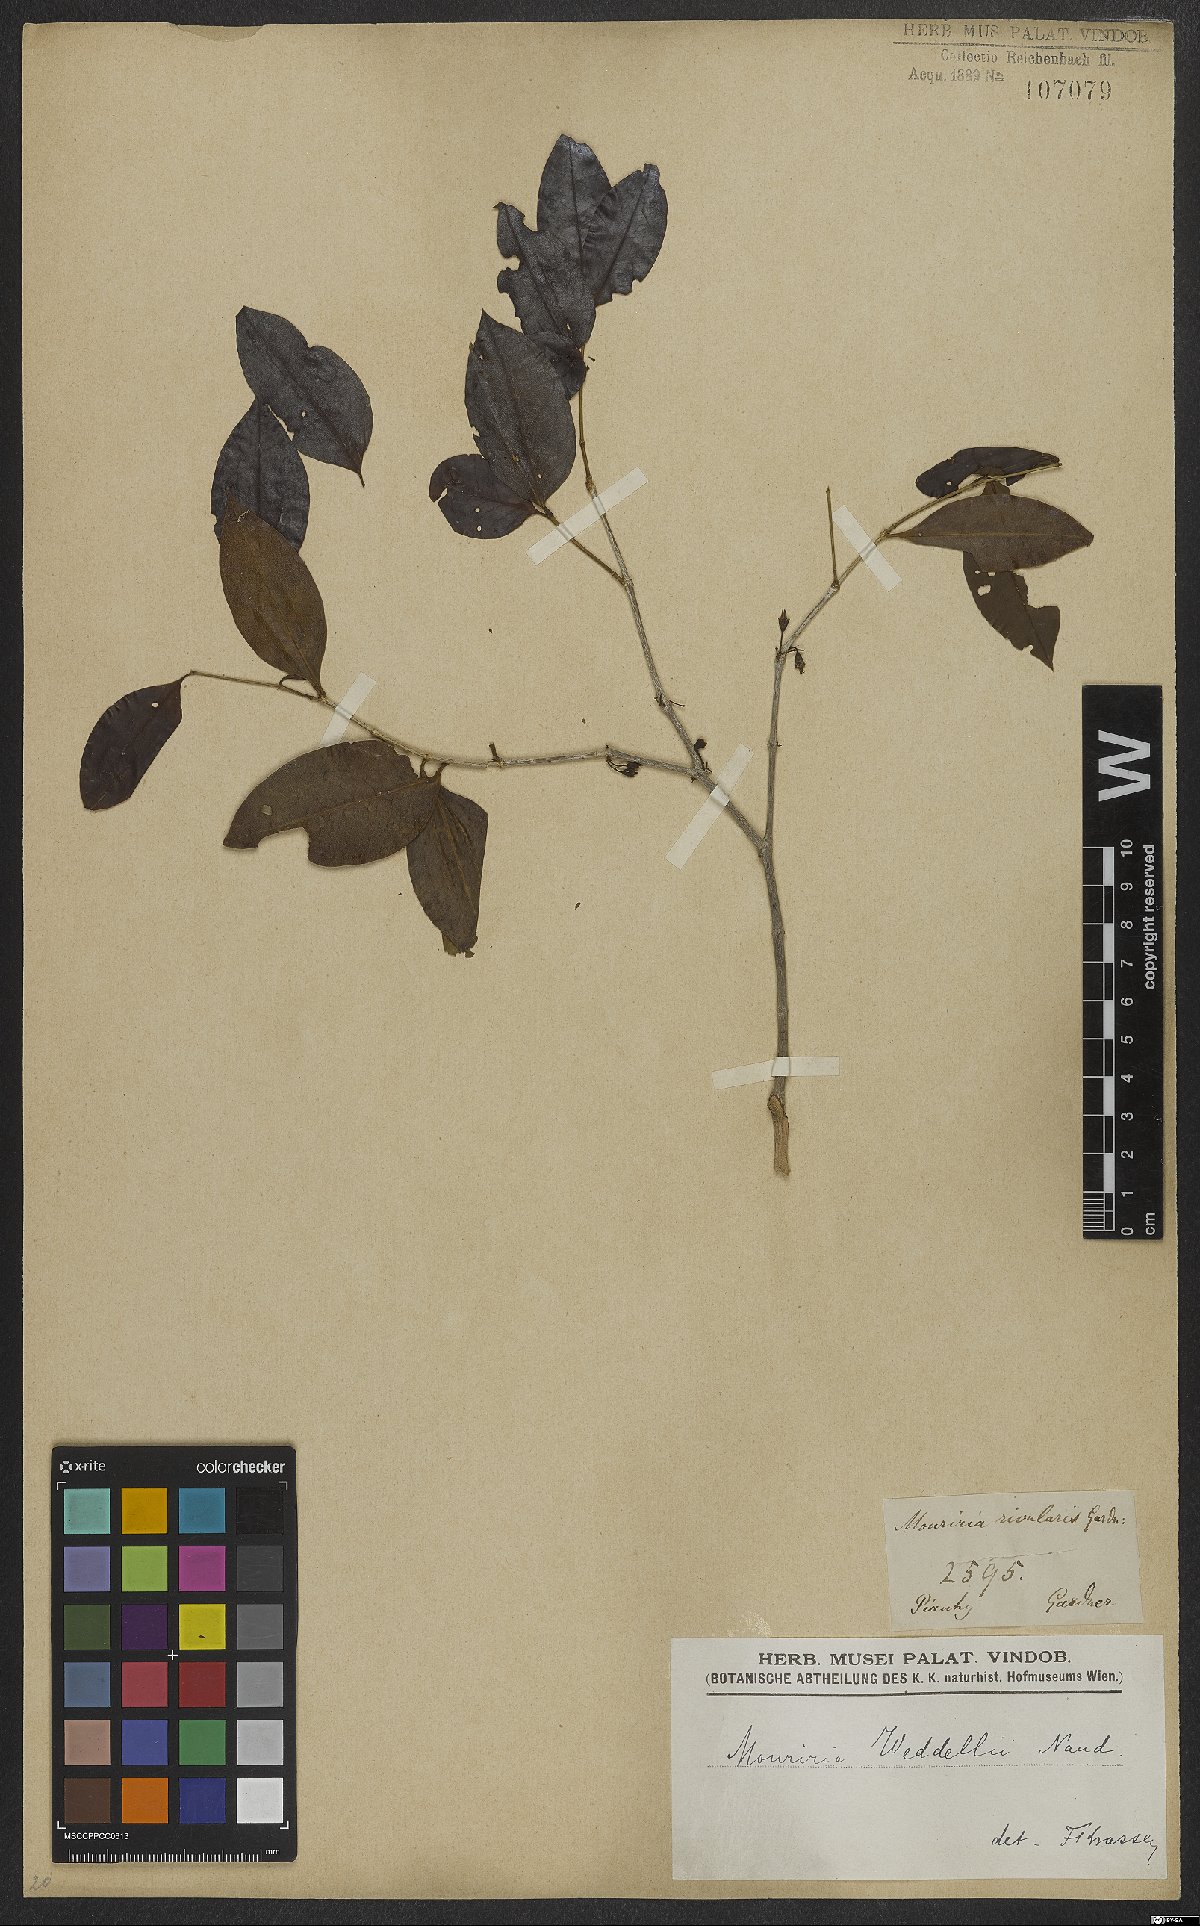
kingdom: Plantae
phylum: Tracheophyta
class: Magnoliopsida
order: Myrtales
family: Melastomataceae
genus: Mouriri
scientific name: Mouriri guianensis
